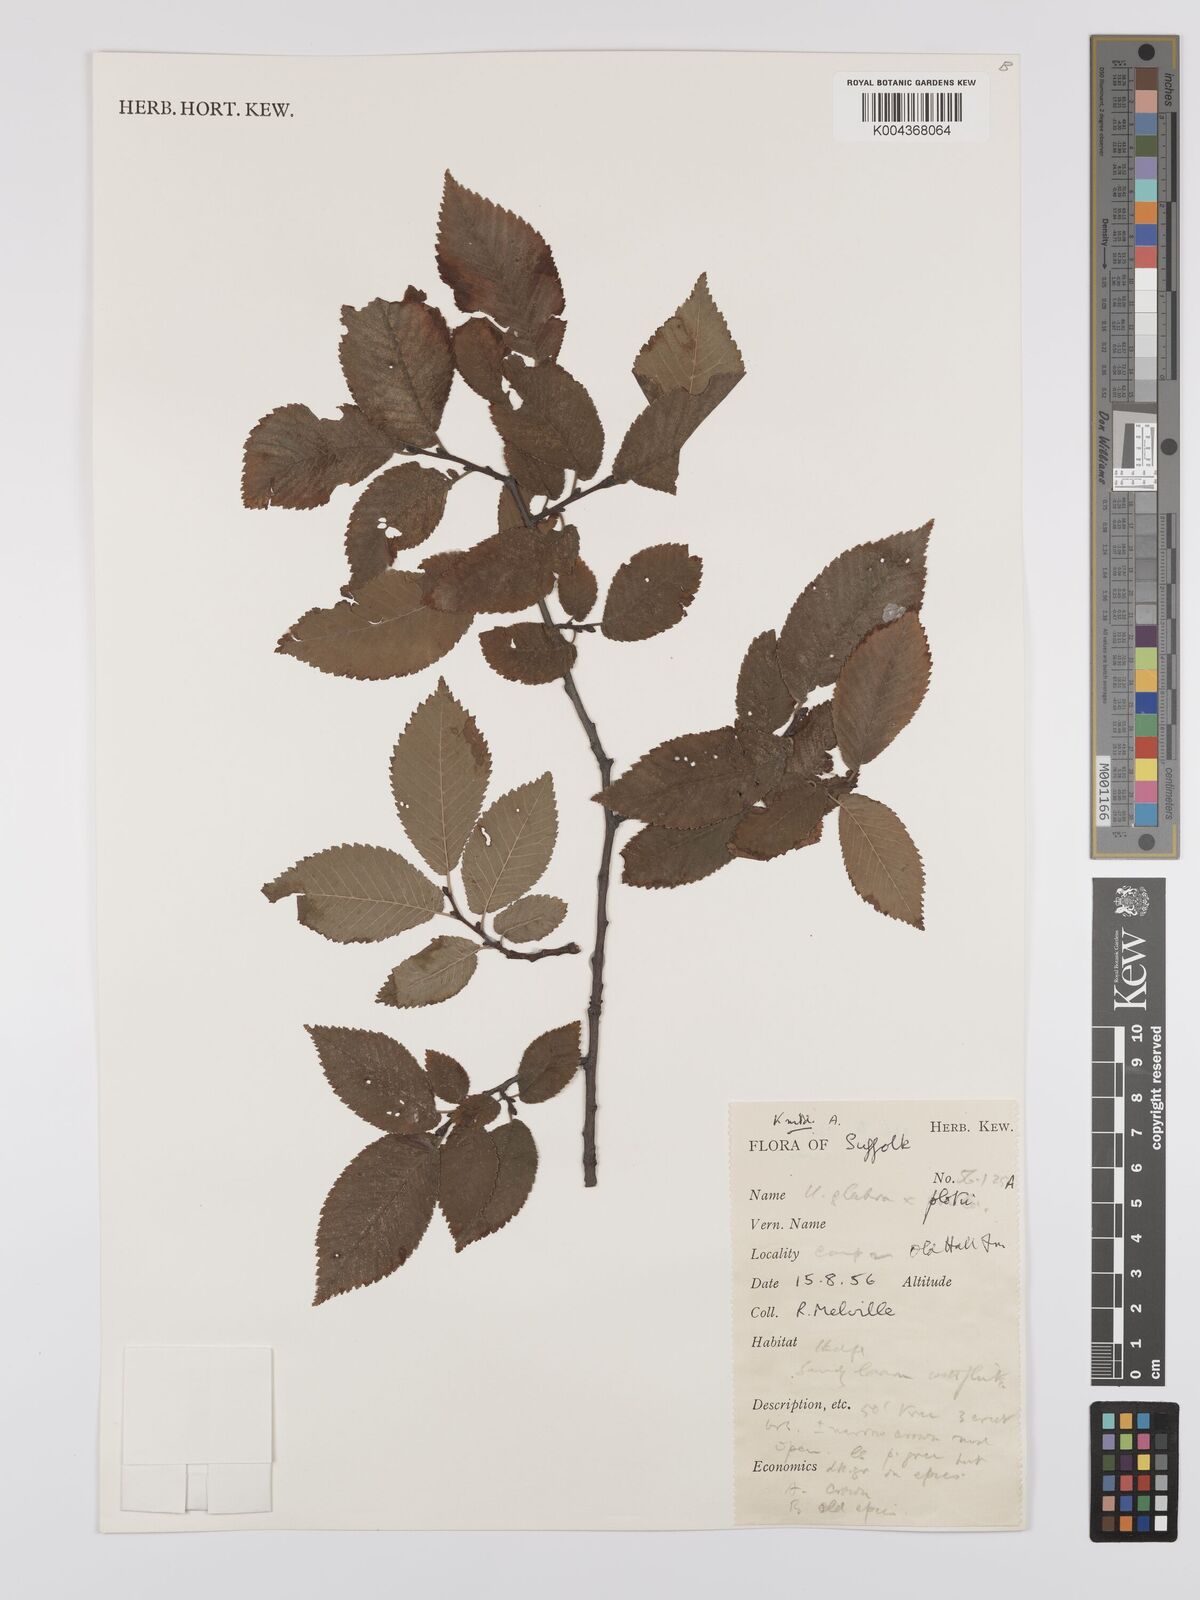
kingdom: Plantae
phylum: Tracheophyta
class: Magnoliopsida
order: Rosales
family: Ulmaceae
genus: Ulmus
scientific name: Ulmus
